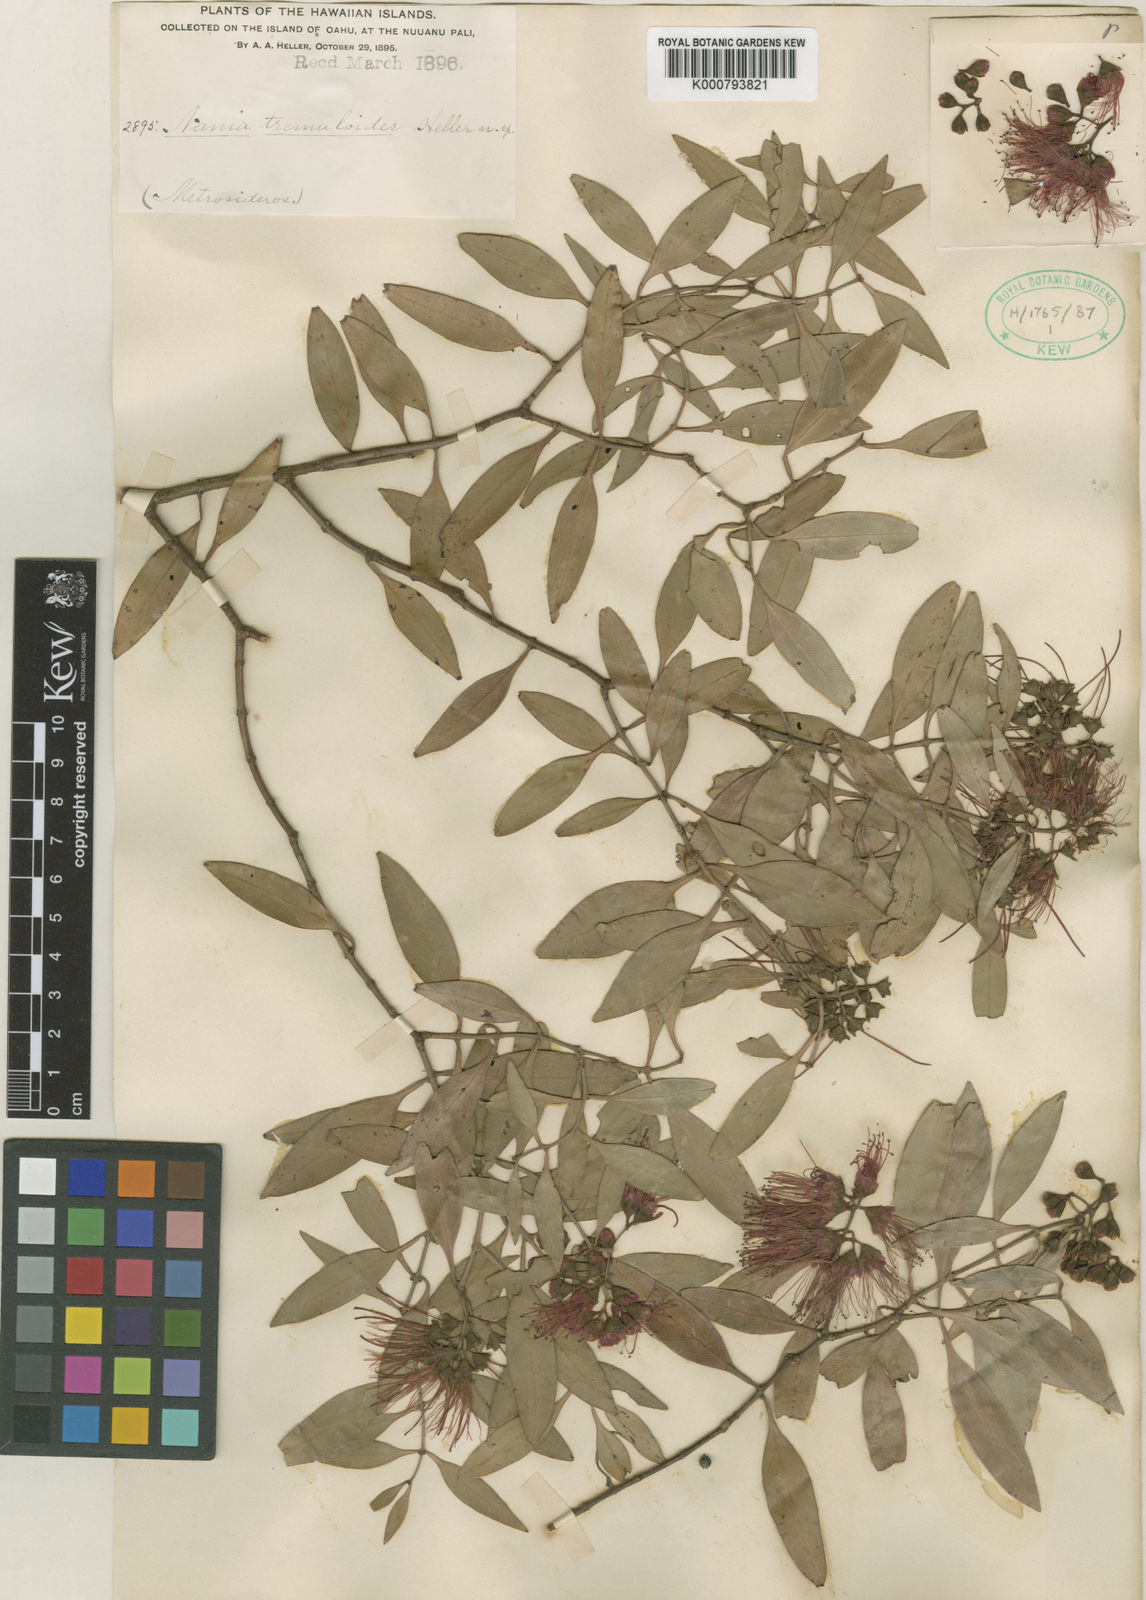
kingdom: Plantae
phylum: Tracheophyta
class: Magnoliopsida
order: Myrtales
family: Myrtaceae
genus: Metrosideros
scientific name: Metrosideros tremuloides
